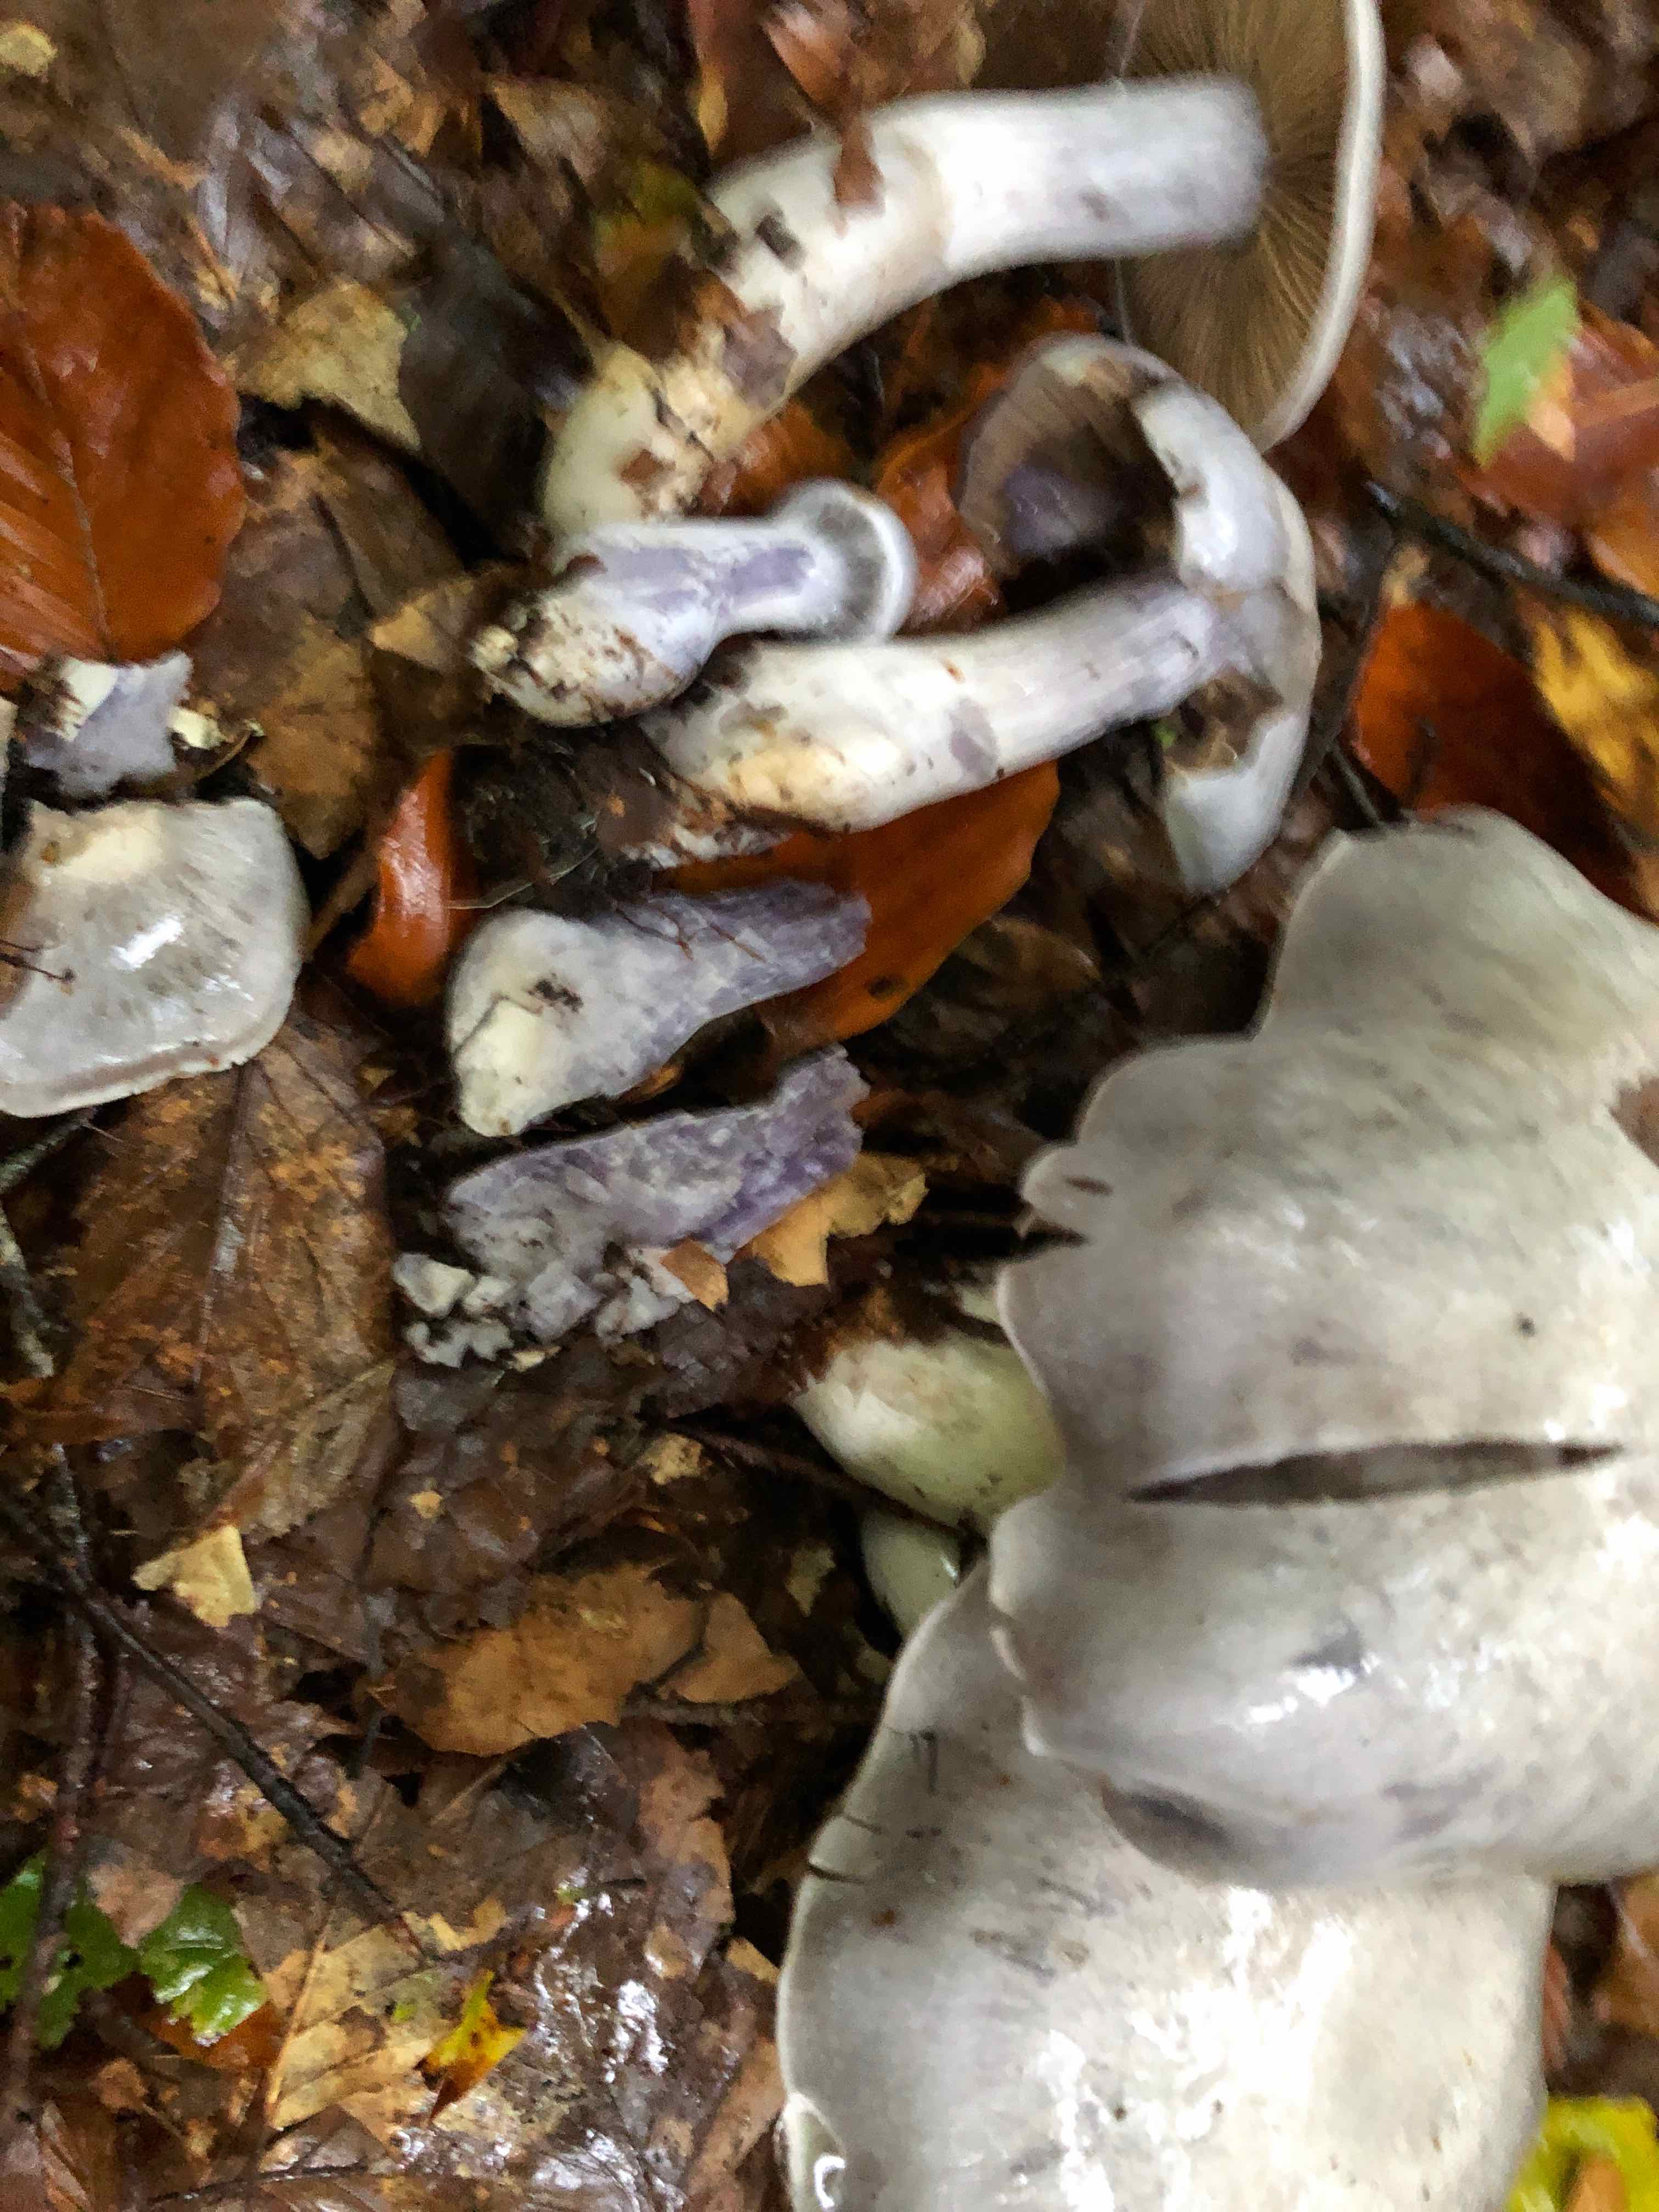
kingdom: Fungi
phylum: Basidiomycota
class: Agaricomycetes
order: Agaricales
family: Cortinariaceae
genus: Cortinarius
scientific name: Cortinarius alboviolaceus
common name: lysviolet slørhat
